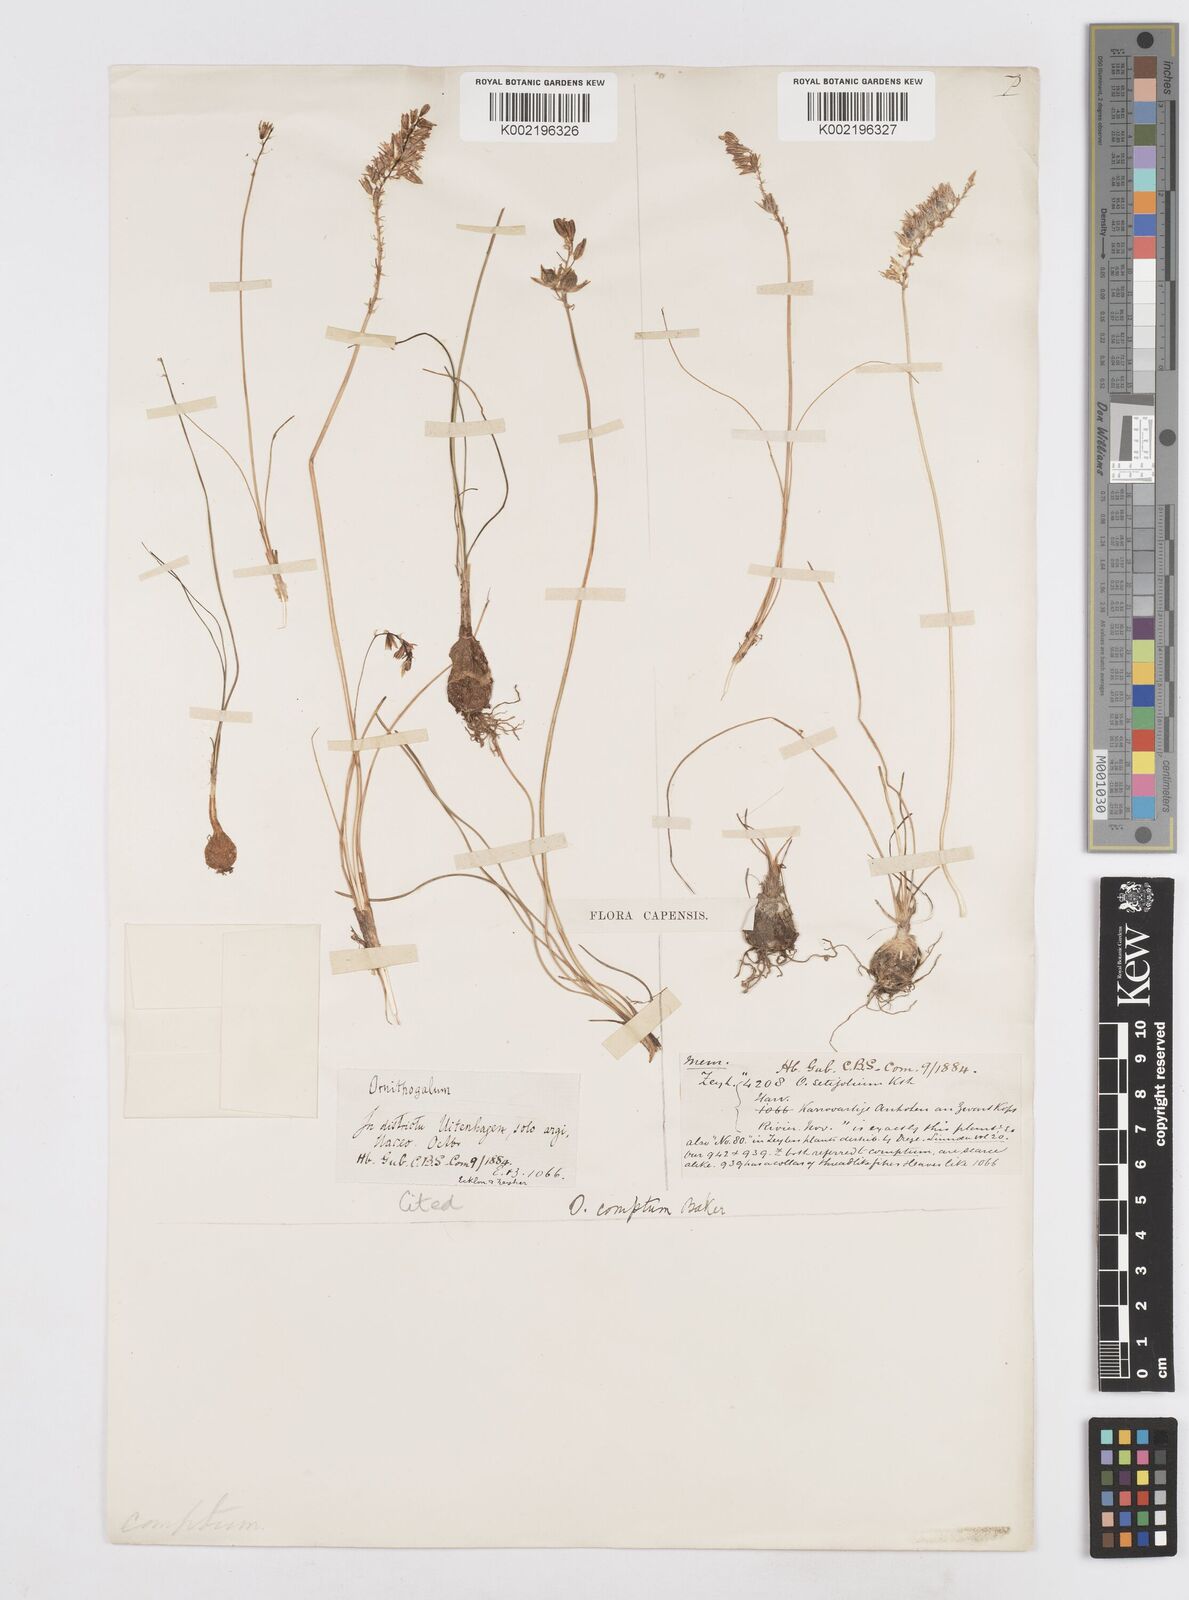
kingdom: Plantae
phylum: Tracheophyta
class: Liliopsida
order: Asparagales
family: Asparagaceae
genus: Ornithogalum
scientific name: Ornithogalum juncifolium
